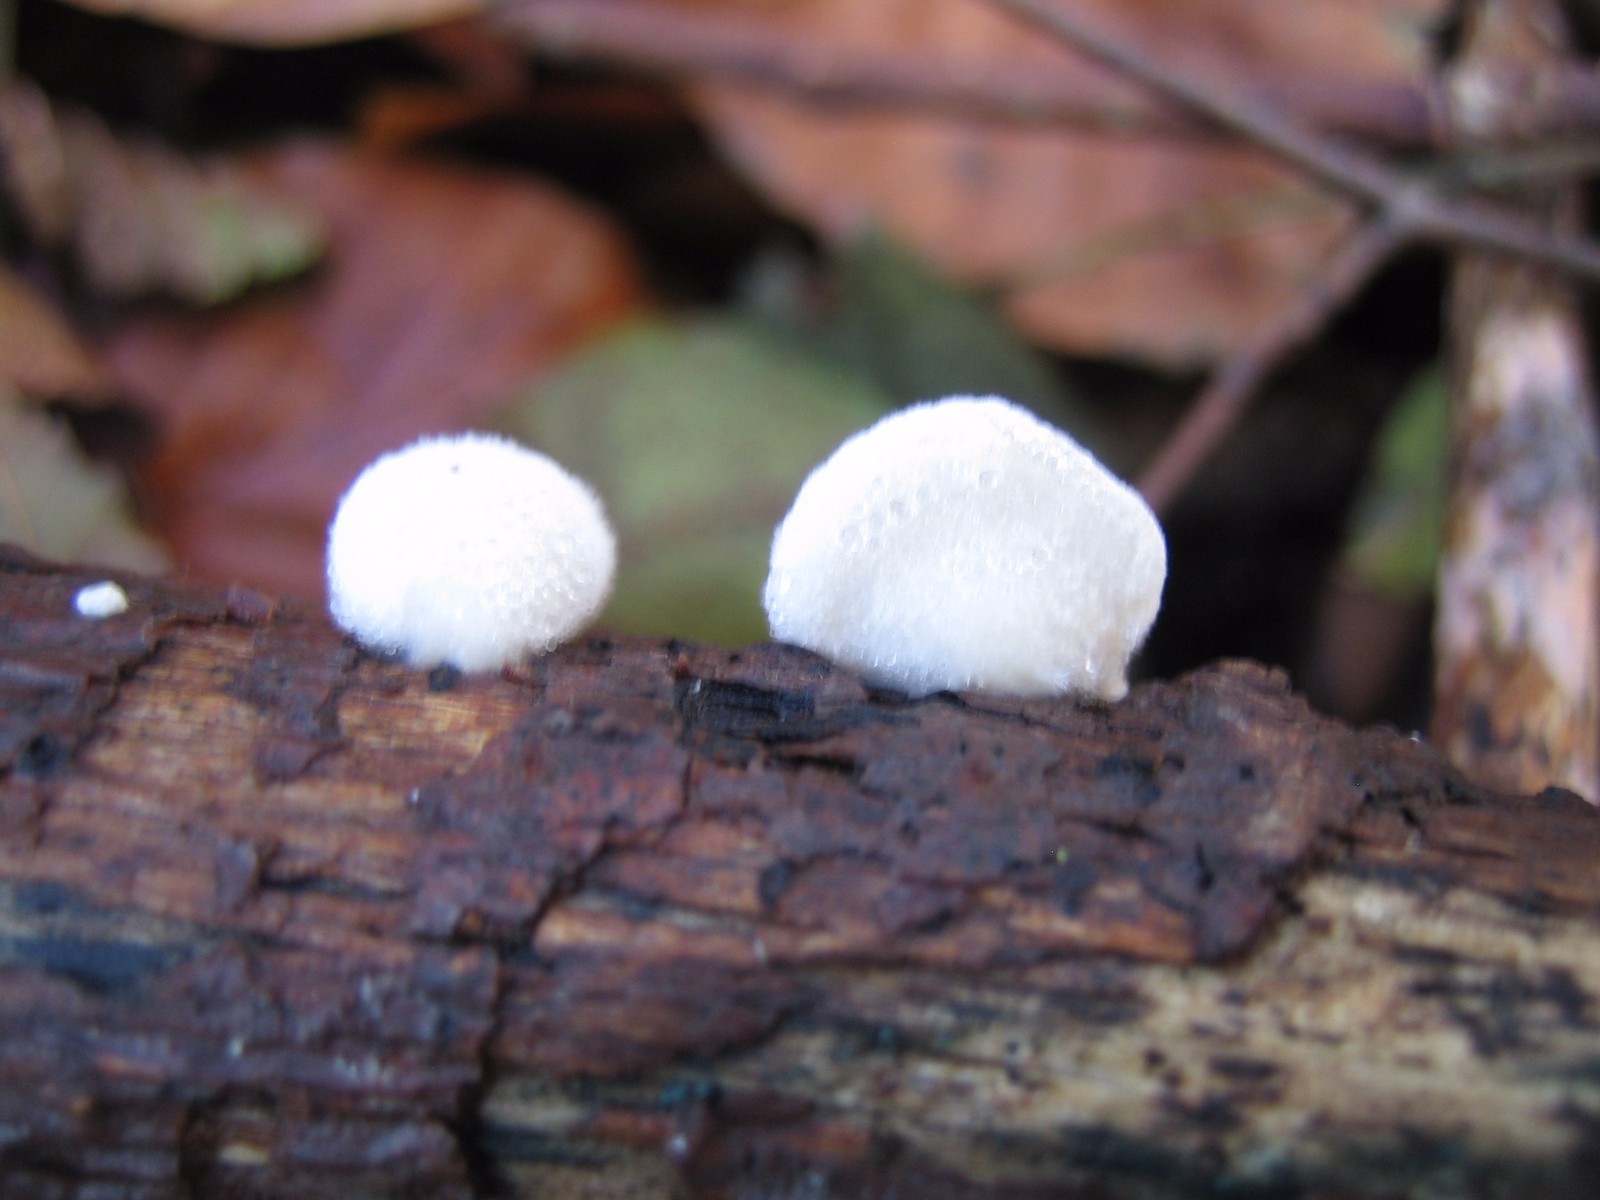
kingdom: Fungi
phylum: Basidiomycota
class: Agaricomycetes
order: Agaricales
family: Crepidotaceae
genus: Crepidotus
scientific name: Crepidotus
